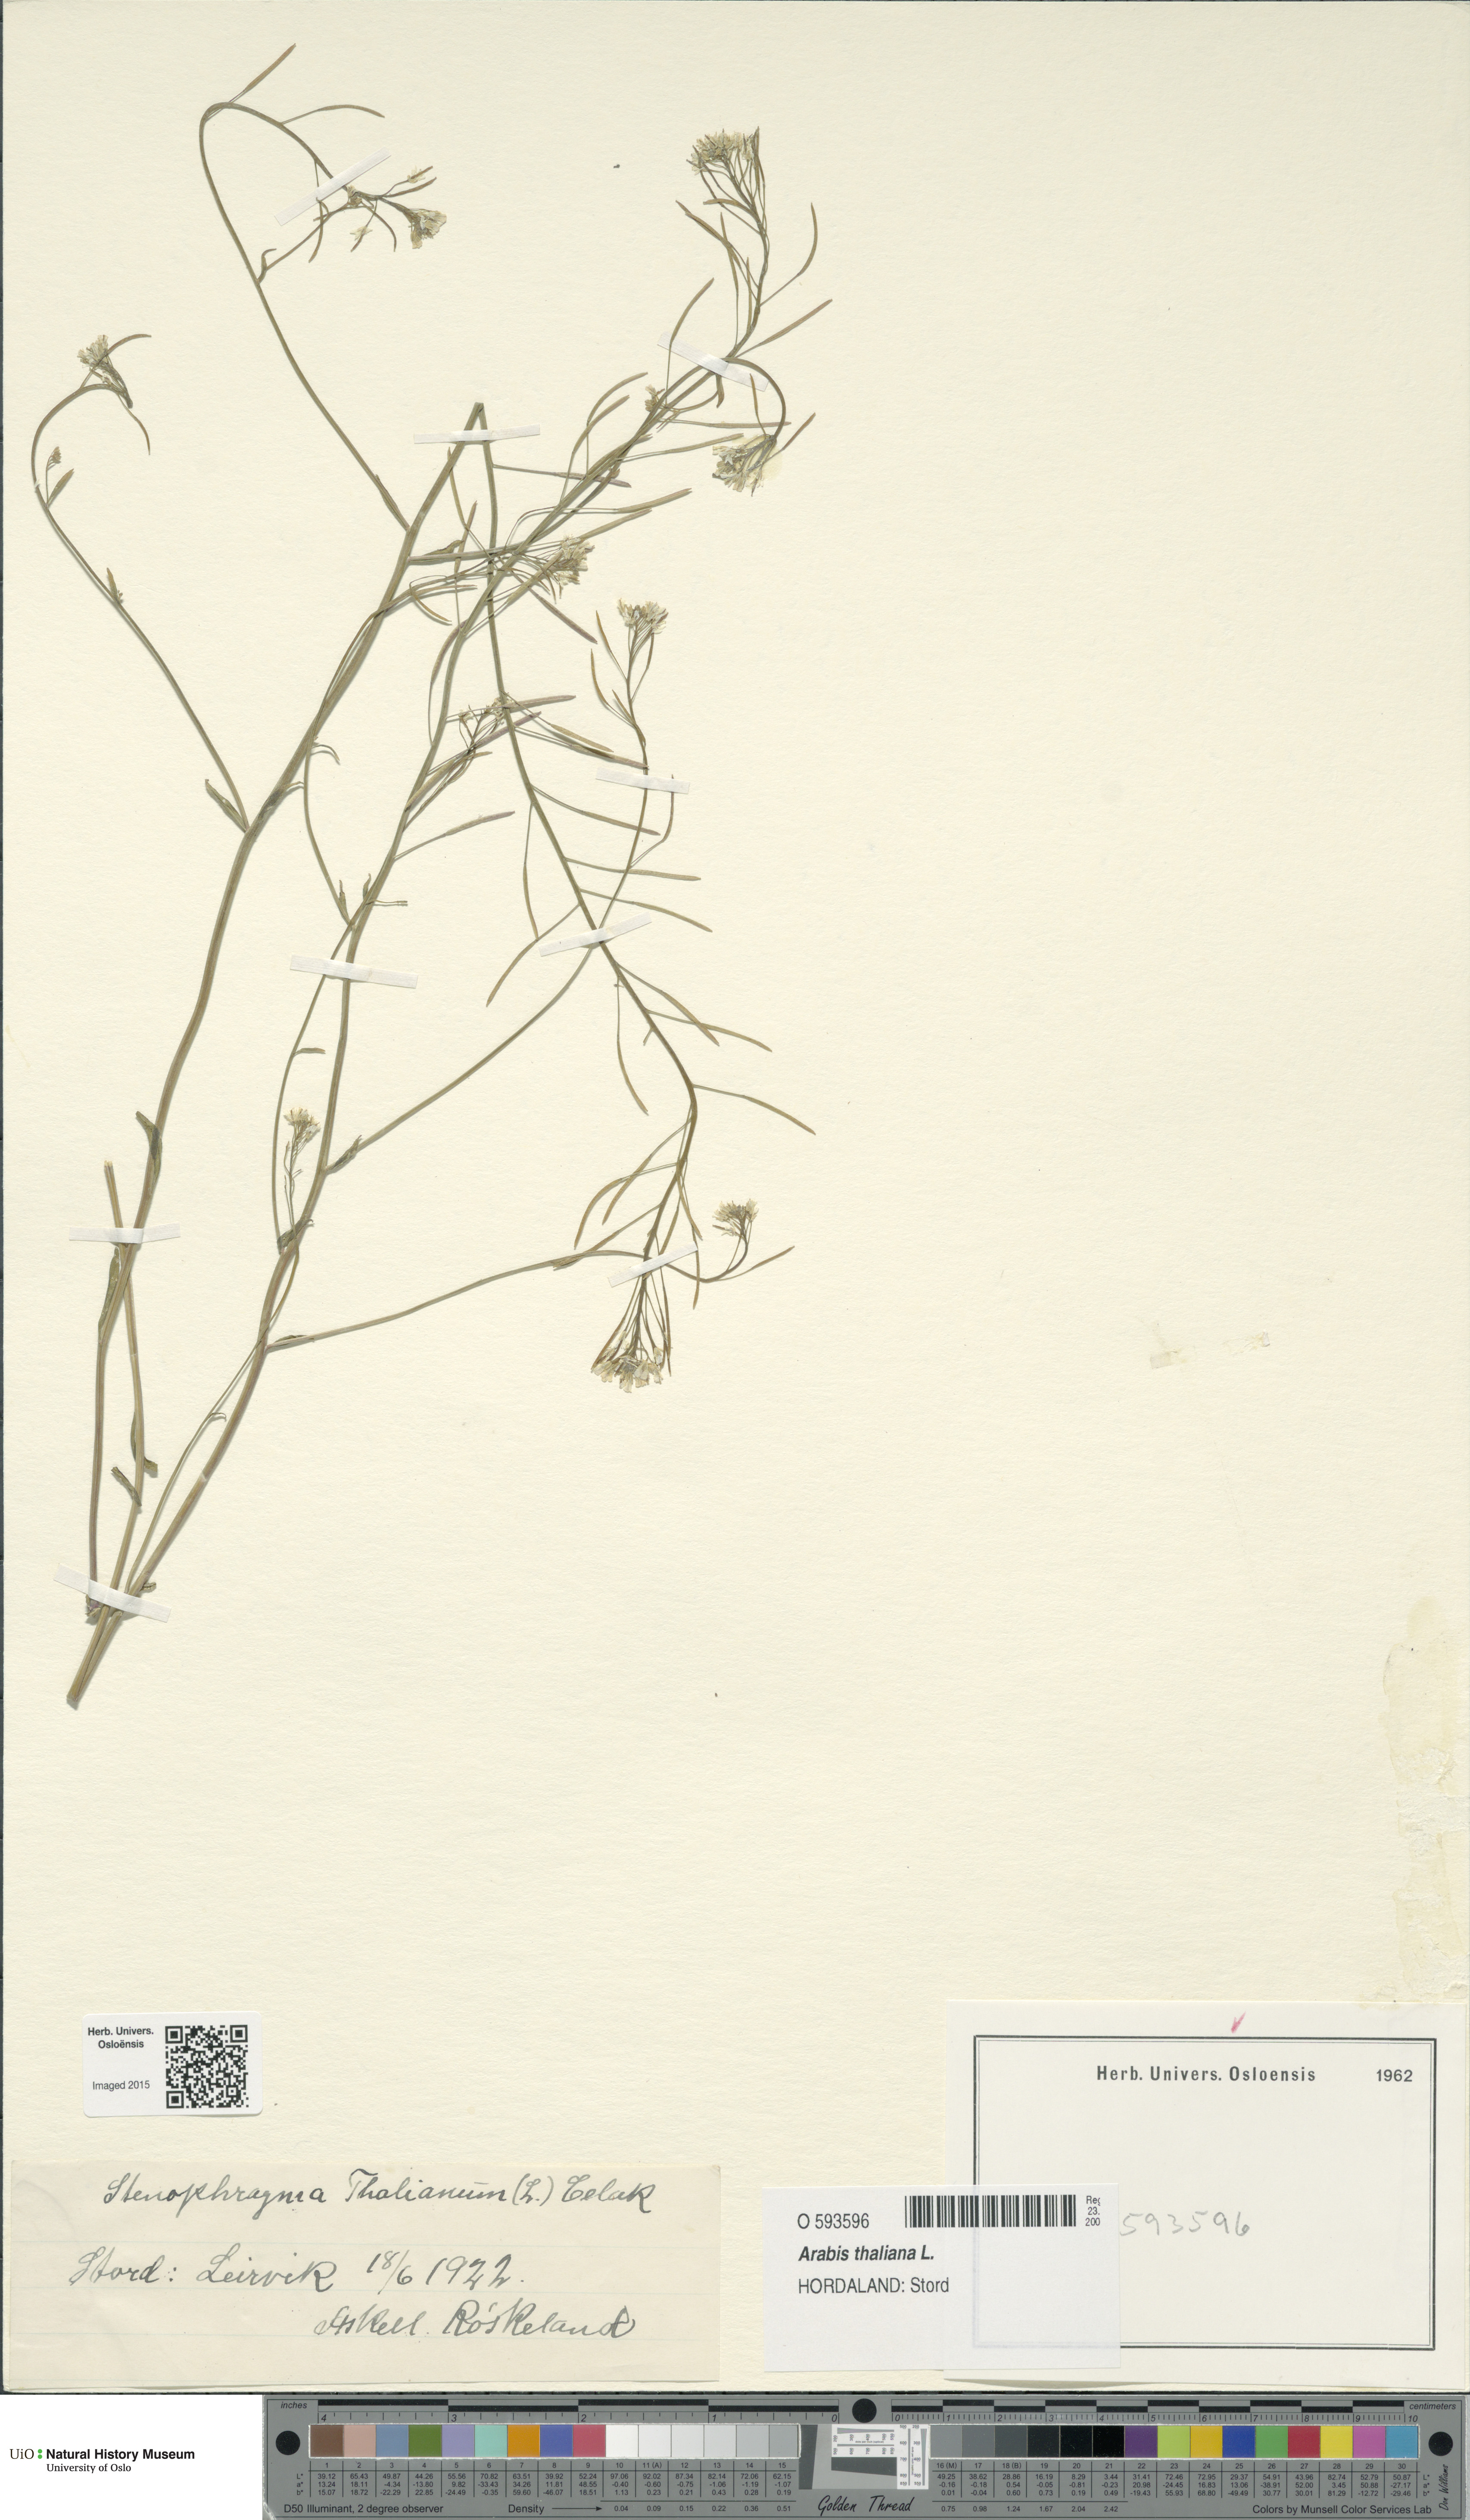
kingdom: Plantae
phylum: Tracheophyta
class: Magnoliopsida
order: Brassicales
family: Brassicaceae
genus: Arabidopsis
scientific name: Arabidopsis thaliana
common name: Thale cress
